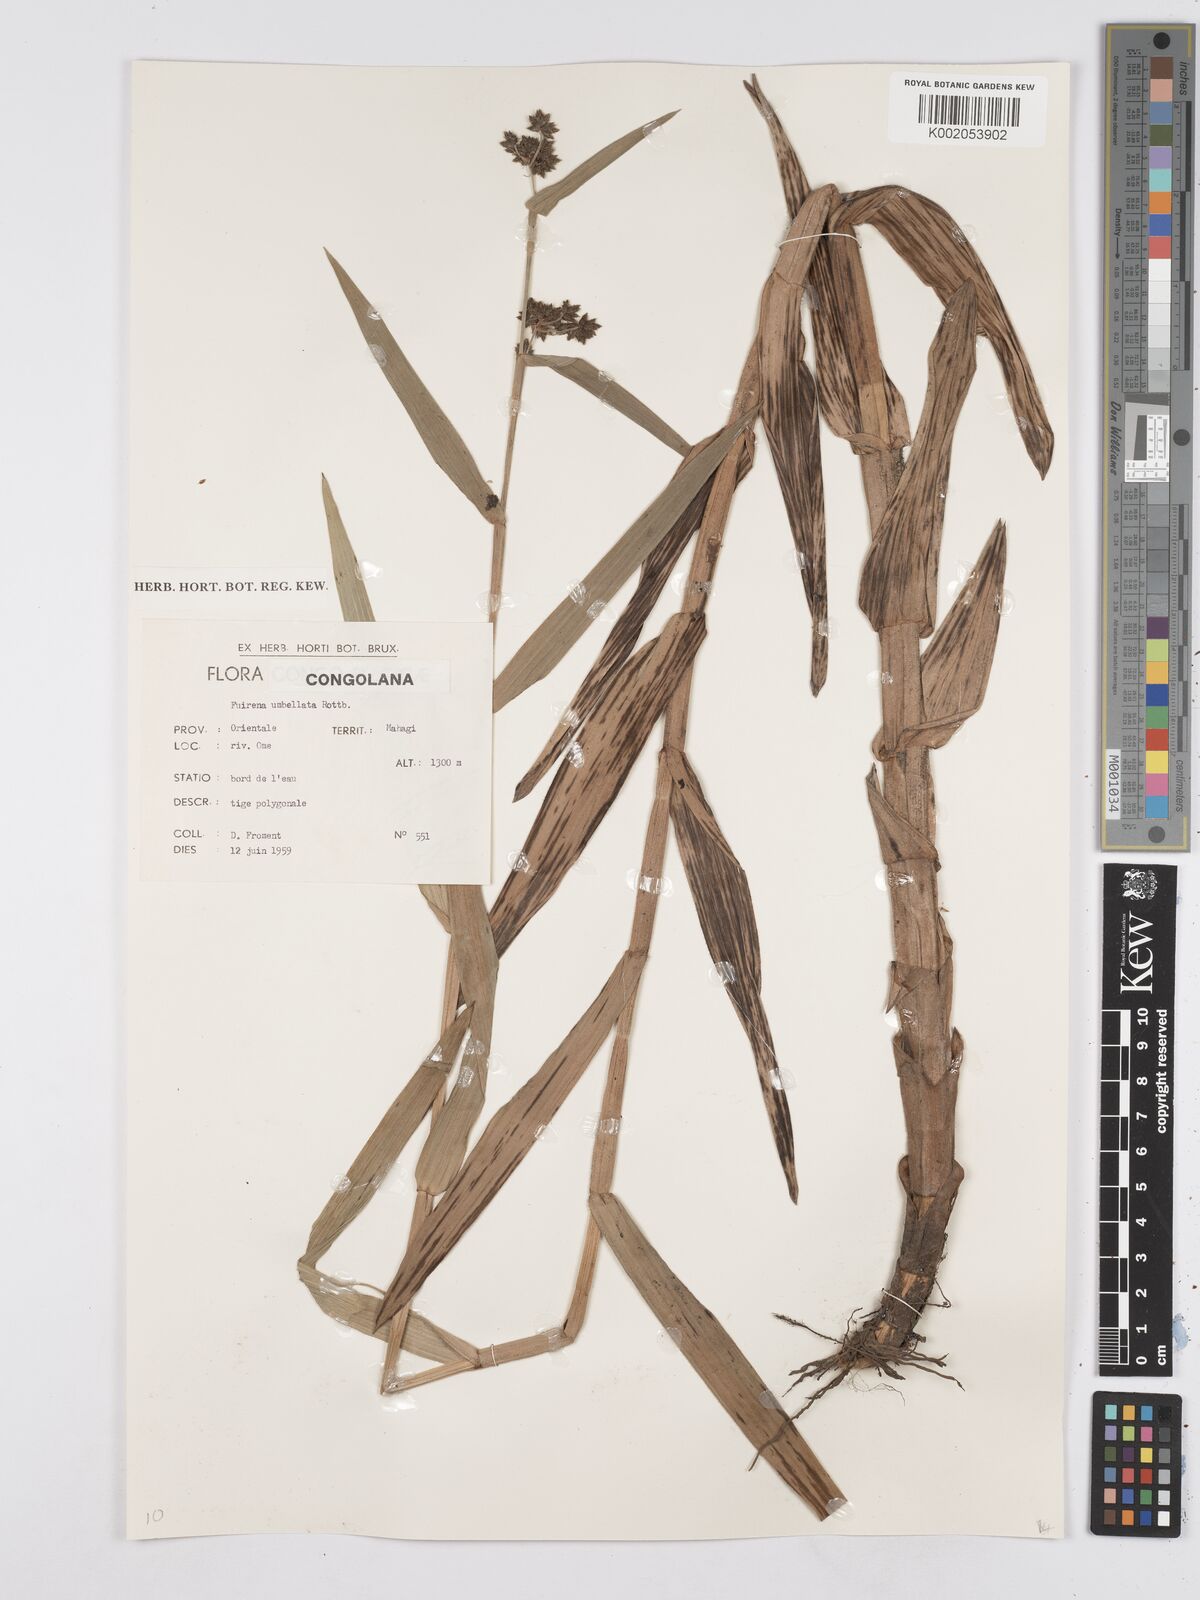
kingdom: Plantae
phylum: Tracheophyta
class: Liliopsida
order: Poales
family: Cyperaceae
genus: Fuirena
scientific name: Fuirena umbellata
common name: Yefen
